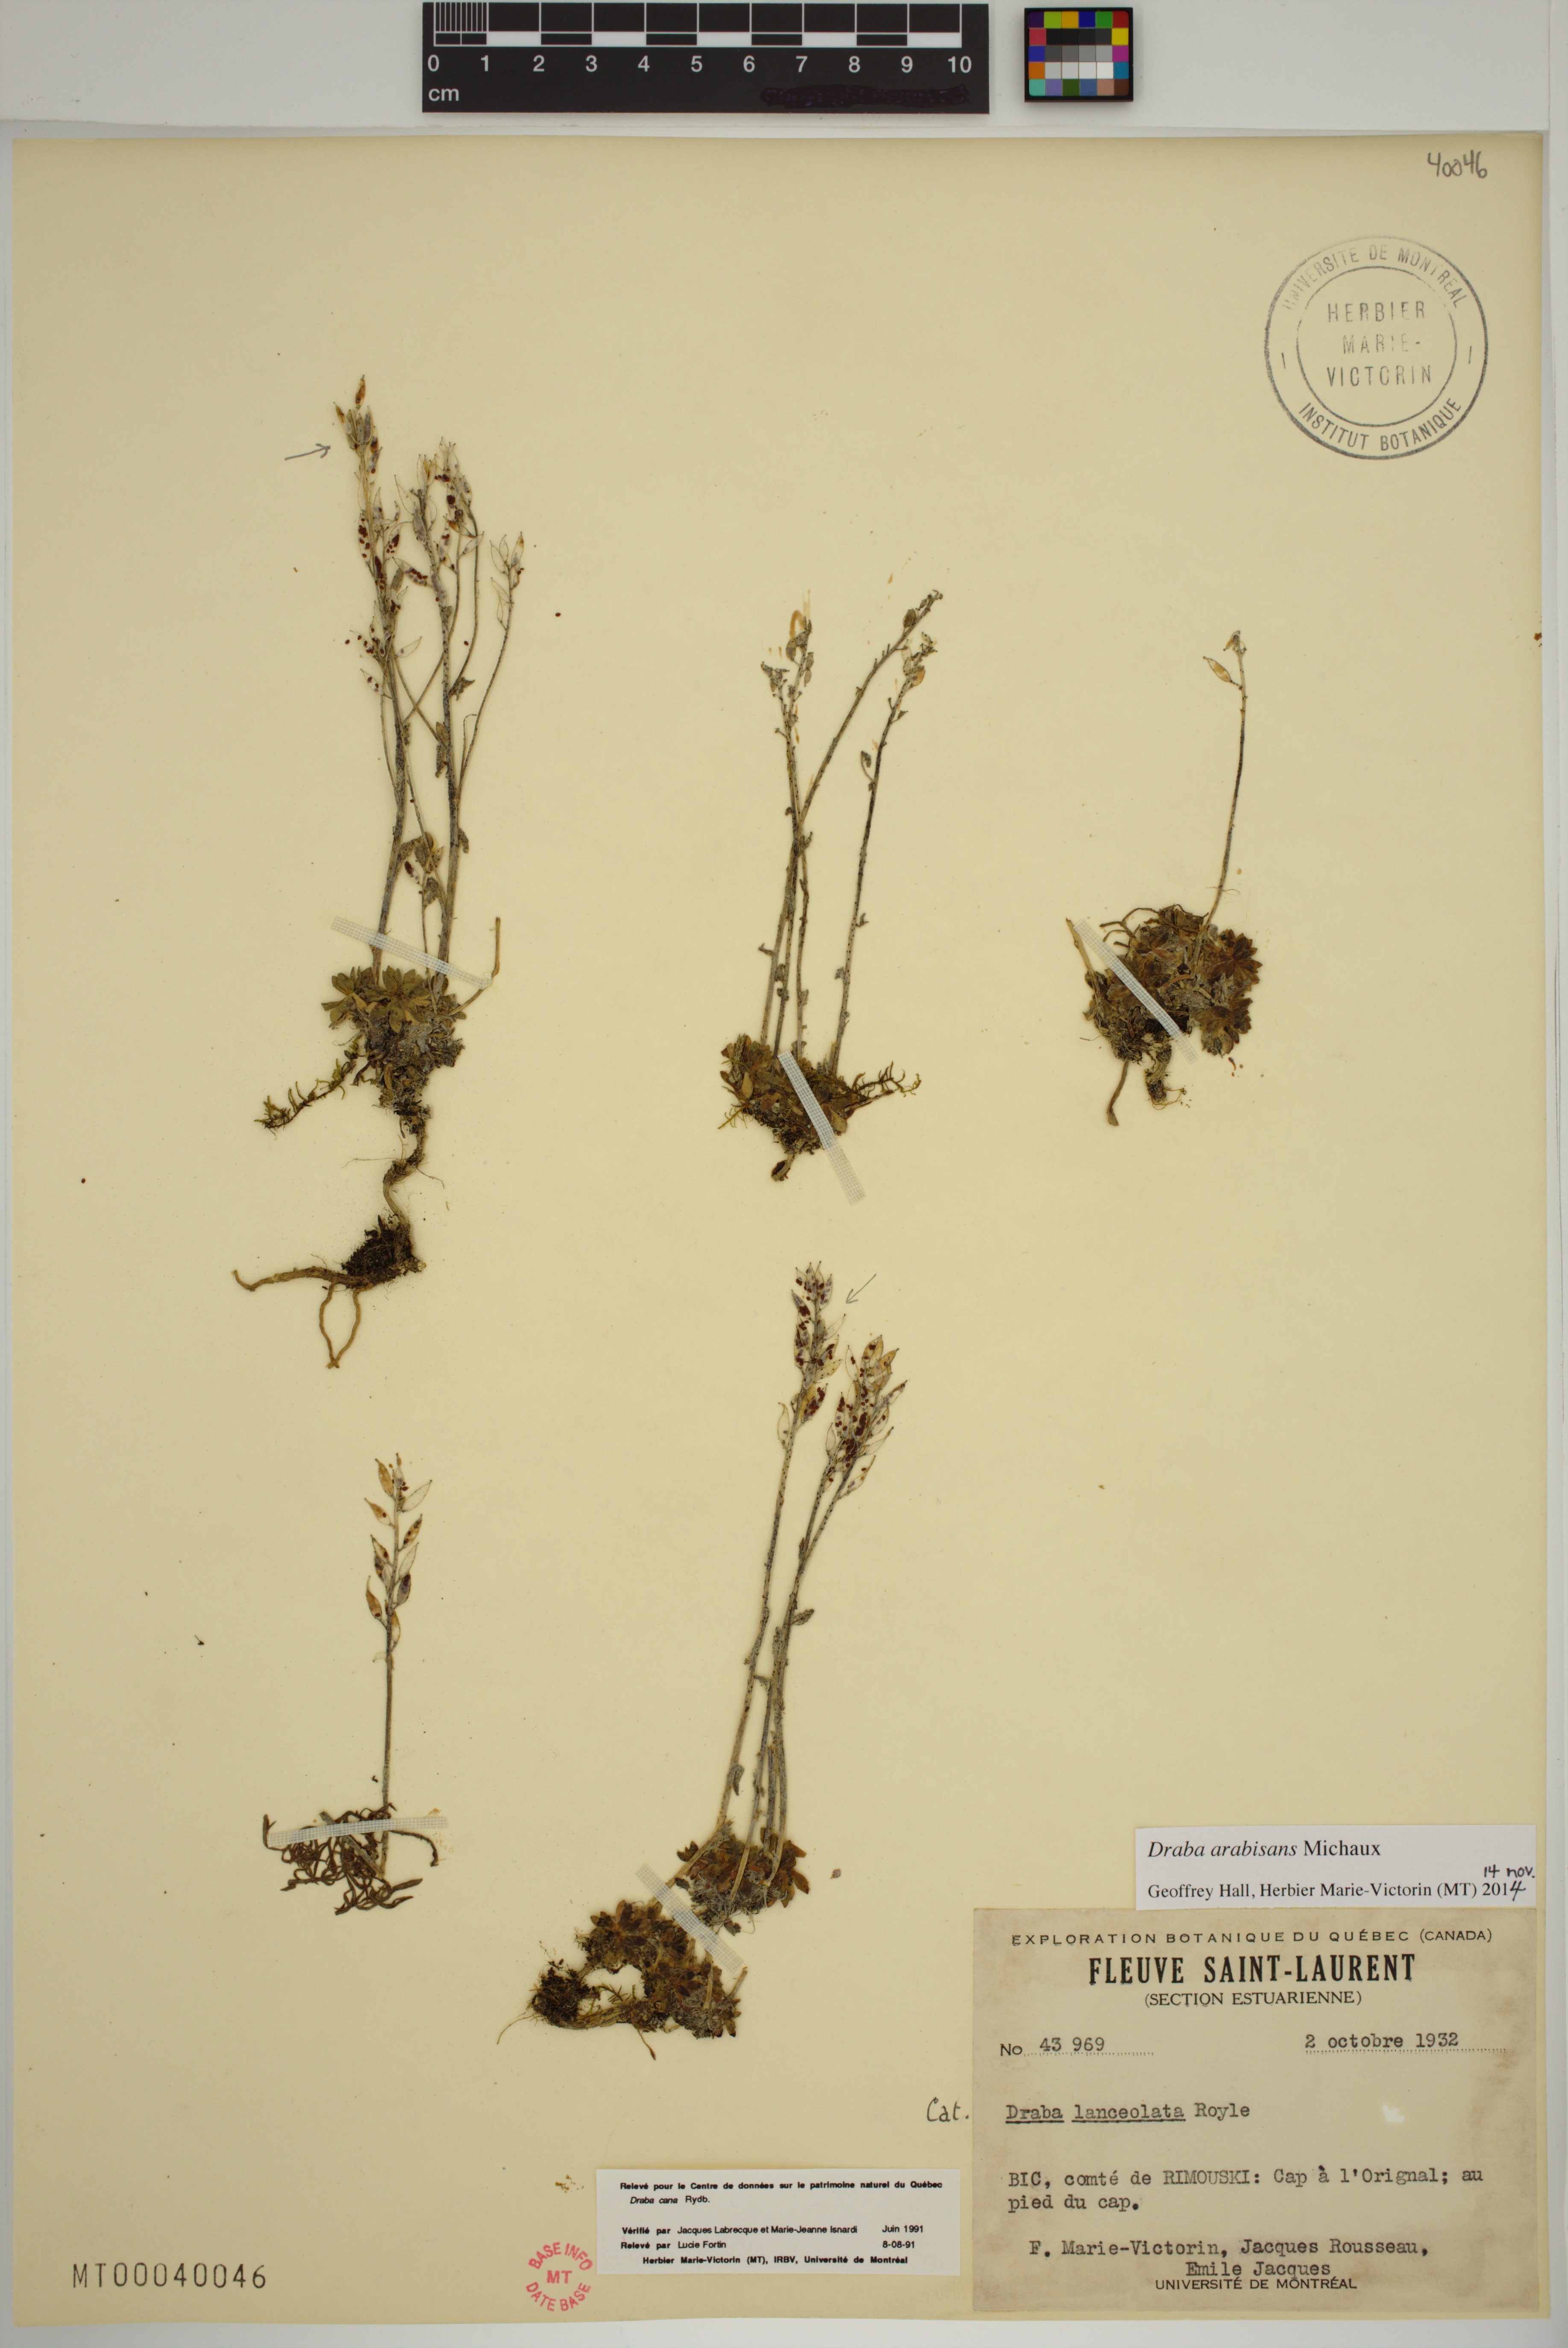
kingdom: Plantae
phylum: Tracheophyta
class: Magnoliopsida
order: Brassicales
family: Brassicaceae
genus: Draba
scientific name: Draba arabisans
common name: Rock draba
